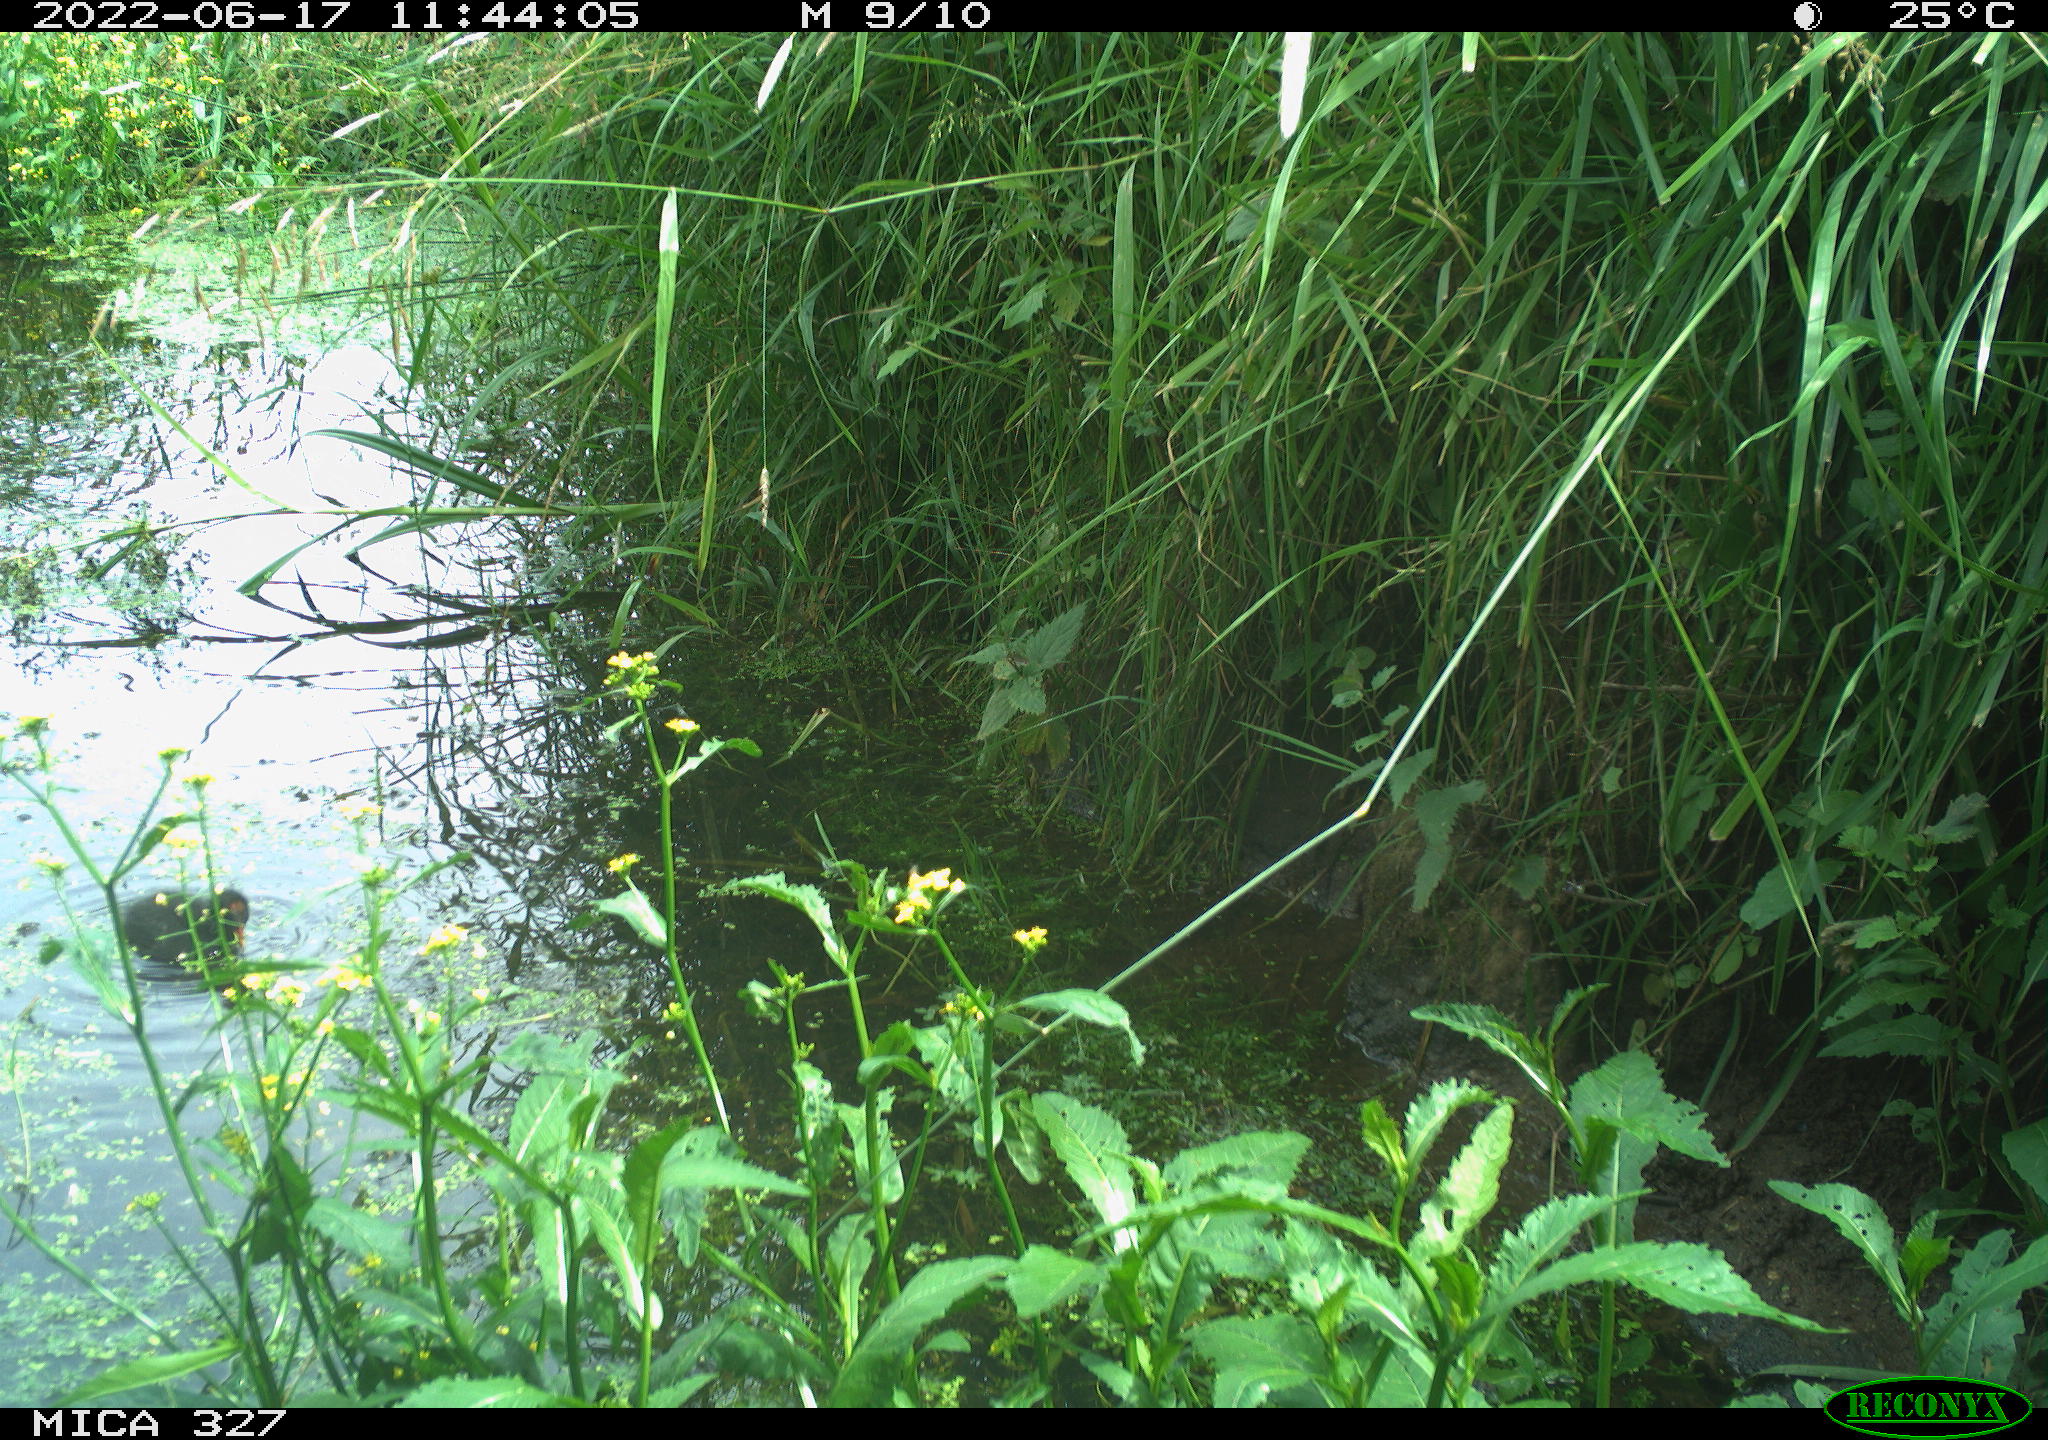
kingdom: Animalia
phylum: Chordata
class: Aves
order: Gruiformes
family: Rallidae
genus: Gallinula
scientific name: Gallinula chloropus
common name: Common moorhen
